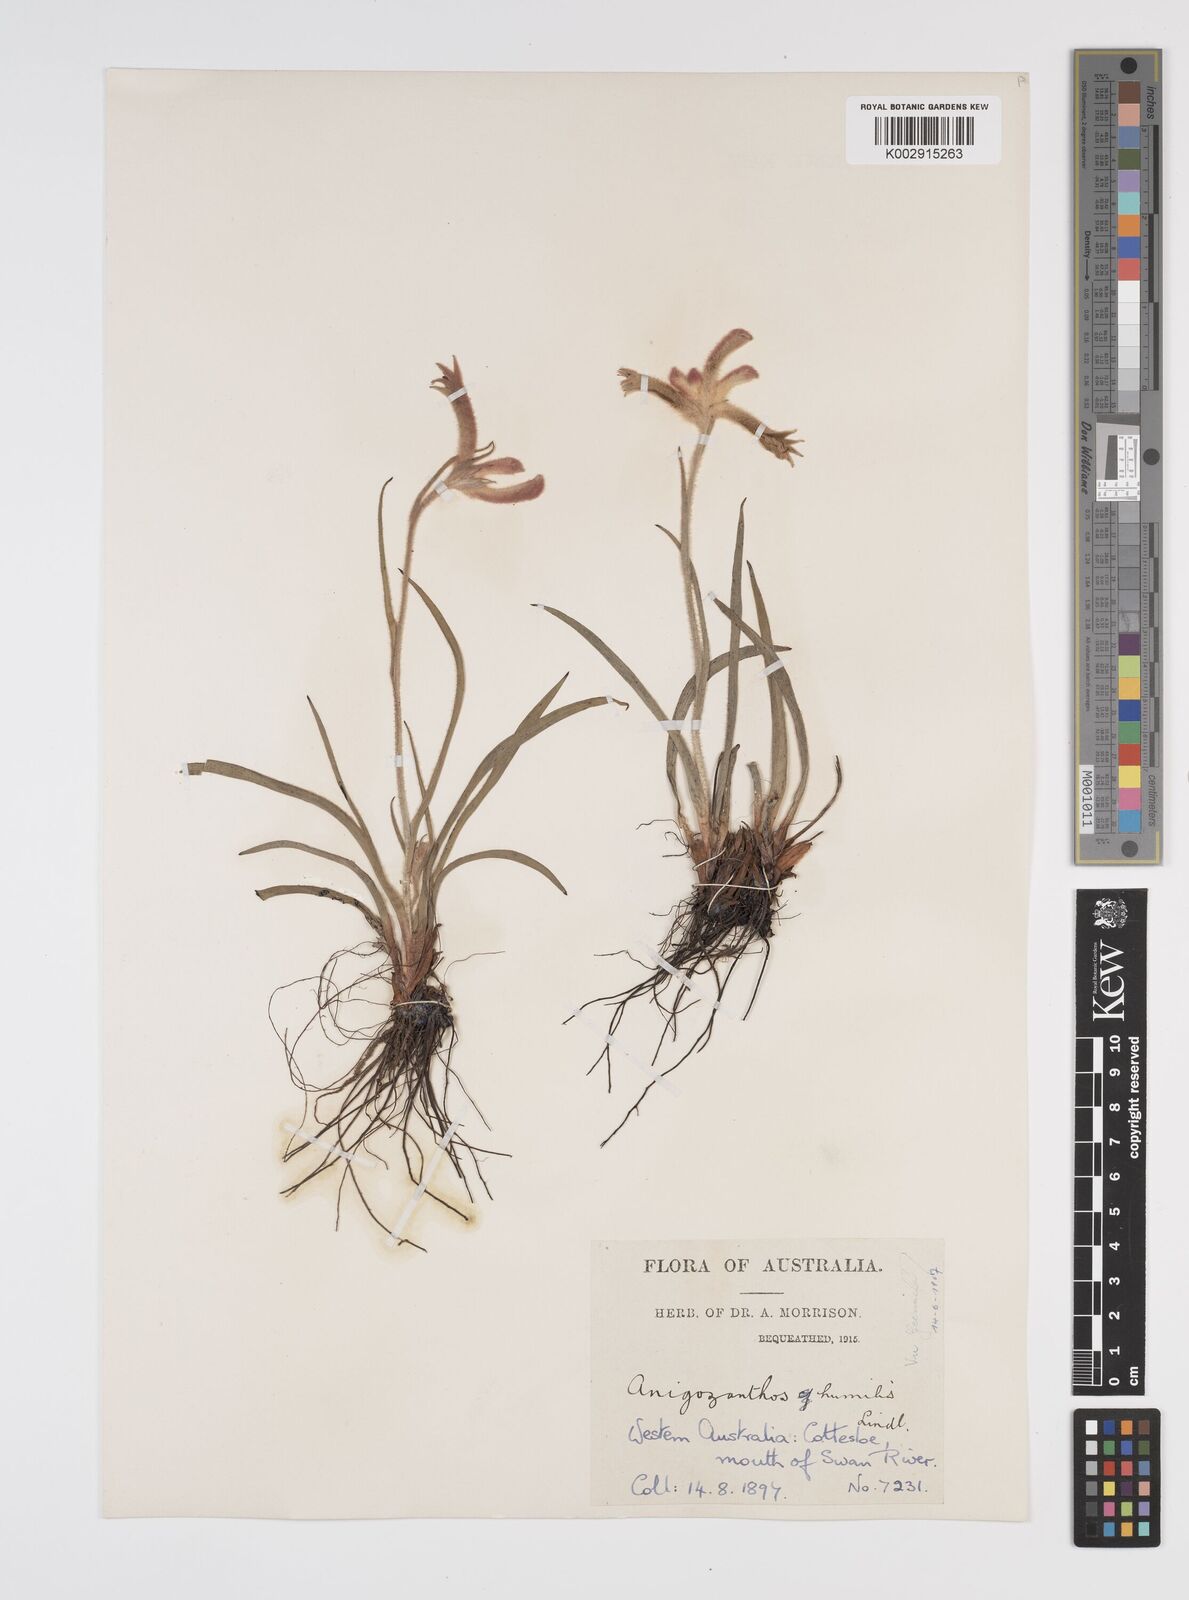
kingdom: Plantae
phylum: Tracheophyta
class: Liliopsida
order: Commelinales
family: Haemodoraceae
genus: Anigozanthos
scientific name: Anigozanthos humilis
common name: Cat's-paw
